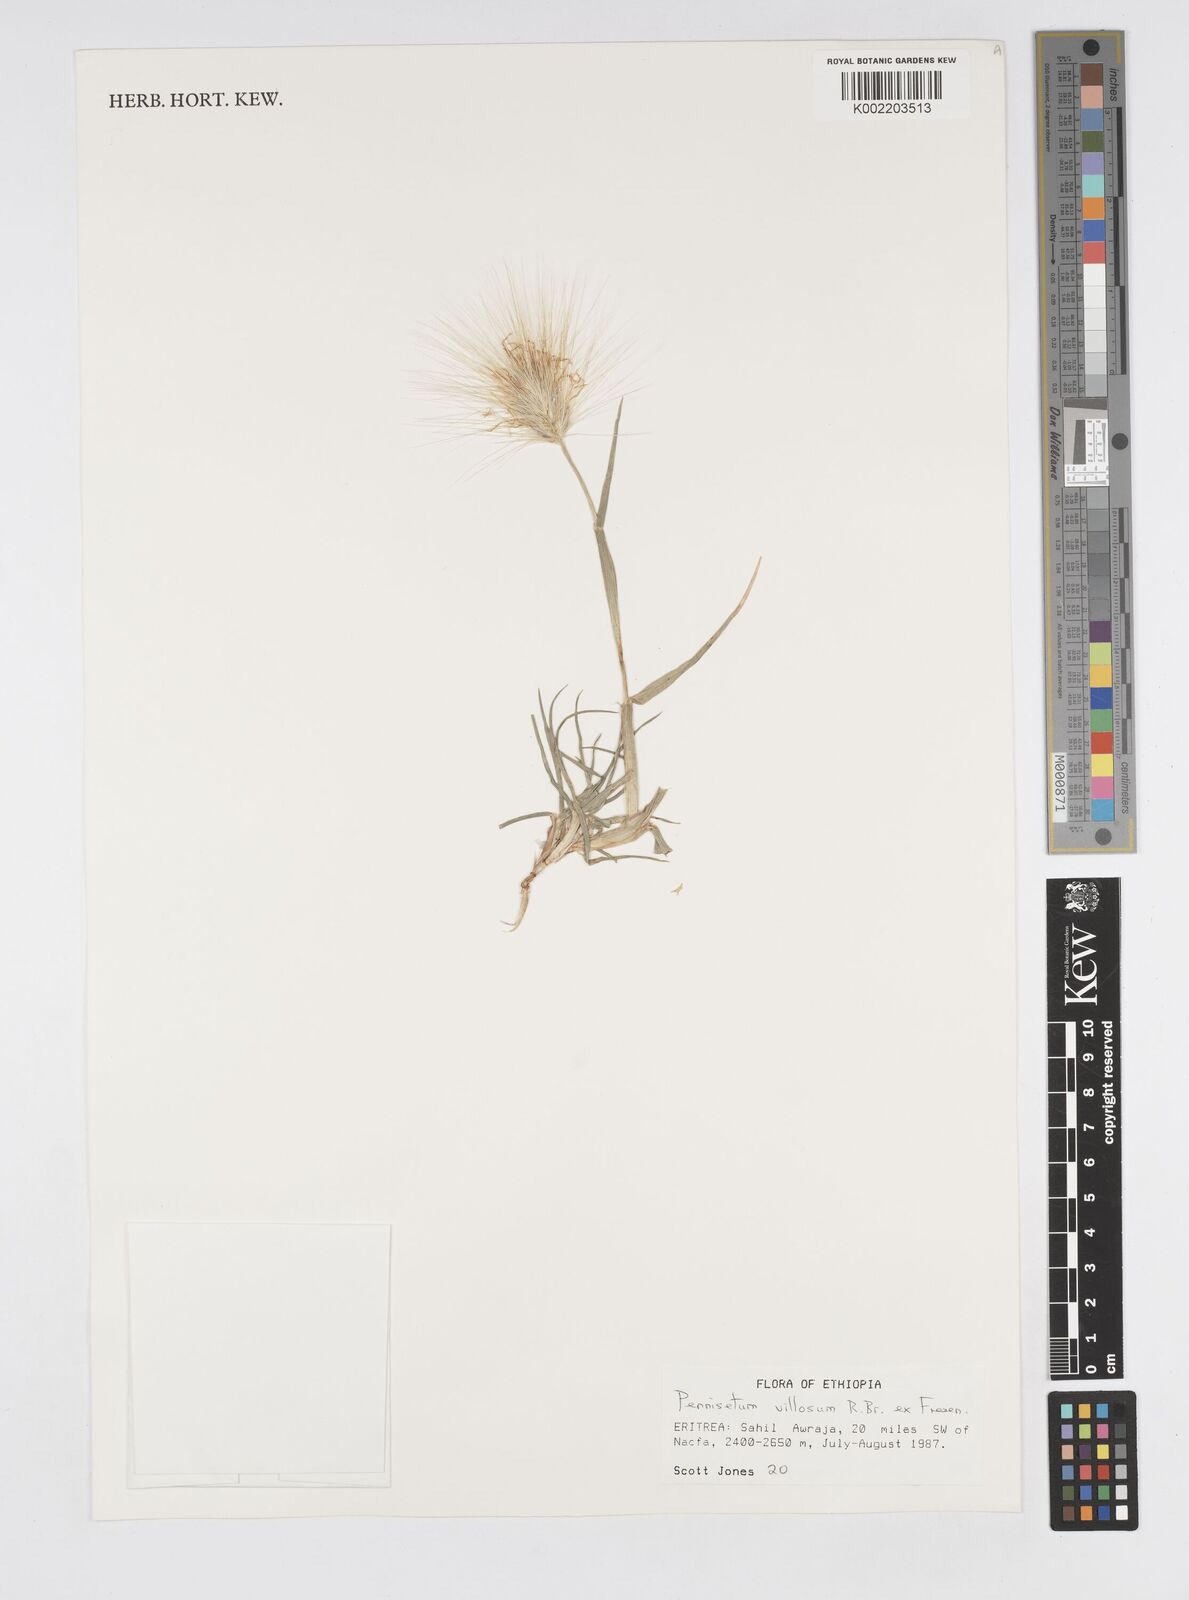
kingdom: Plantae
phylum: Tracheophyta
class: Liliopsida
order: Poales
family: Poaceae
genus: Cenchrus
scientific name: Cenchrus longisetus
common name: Feathertop
